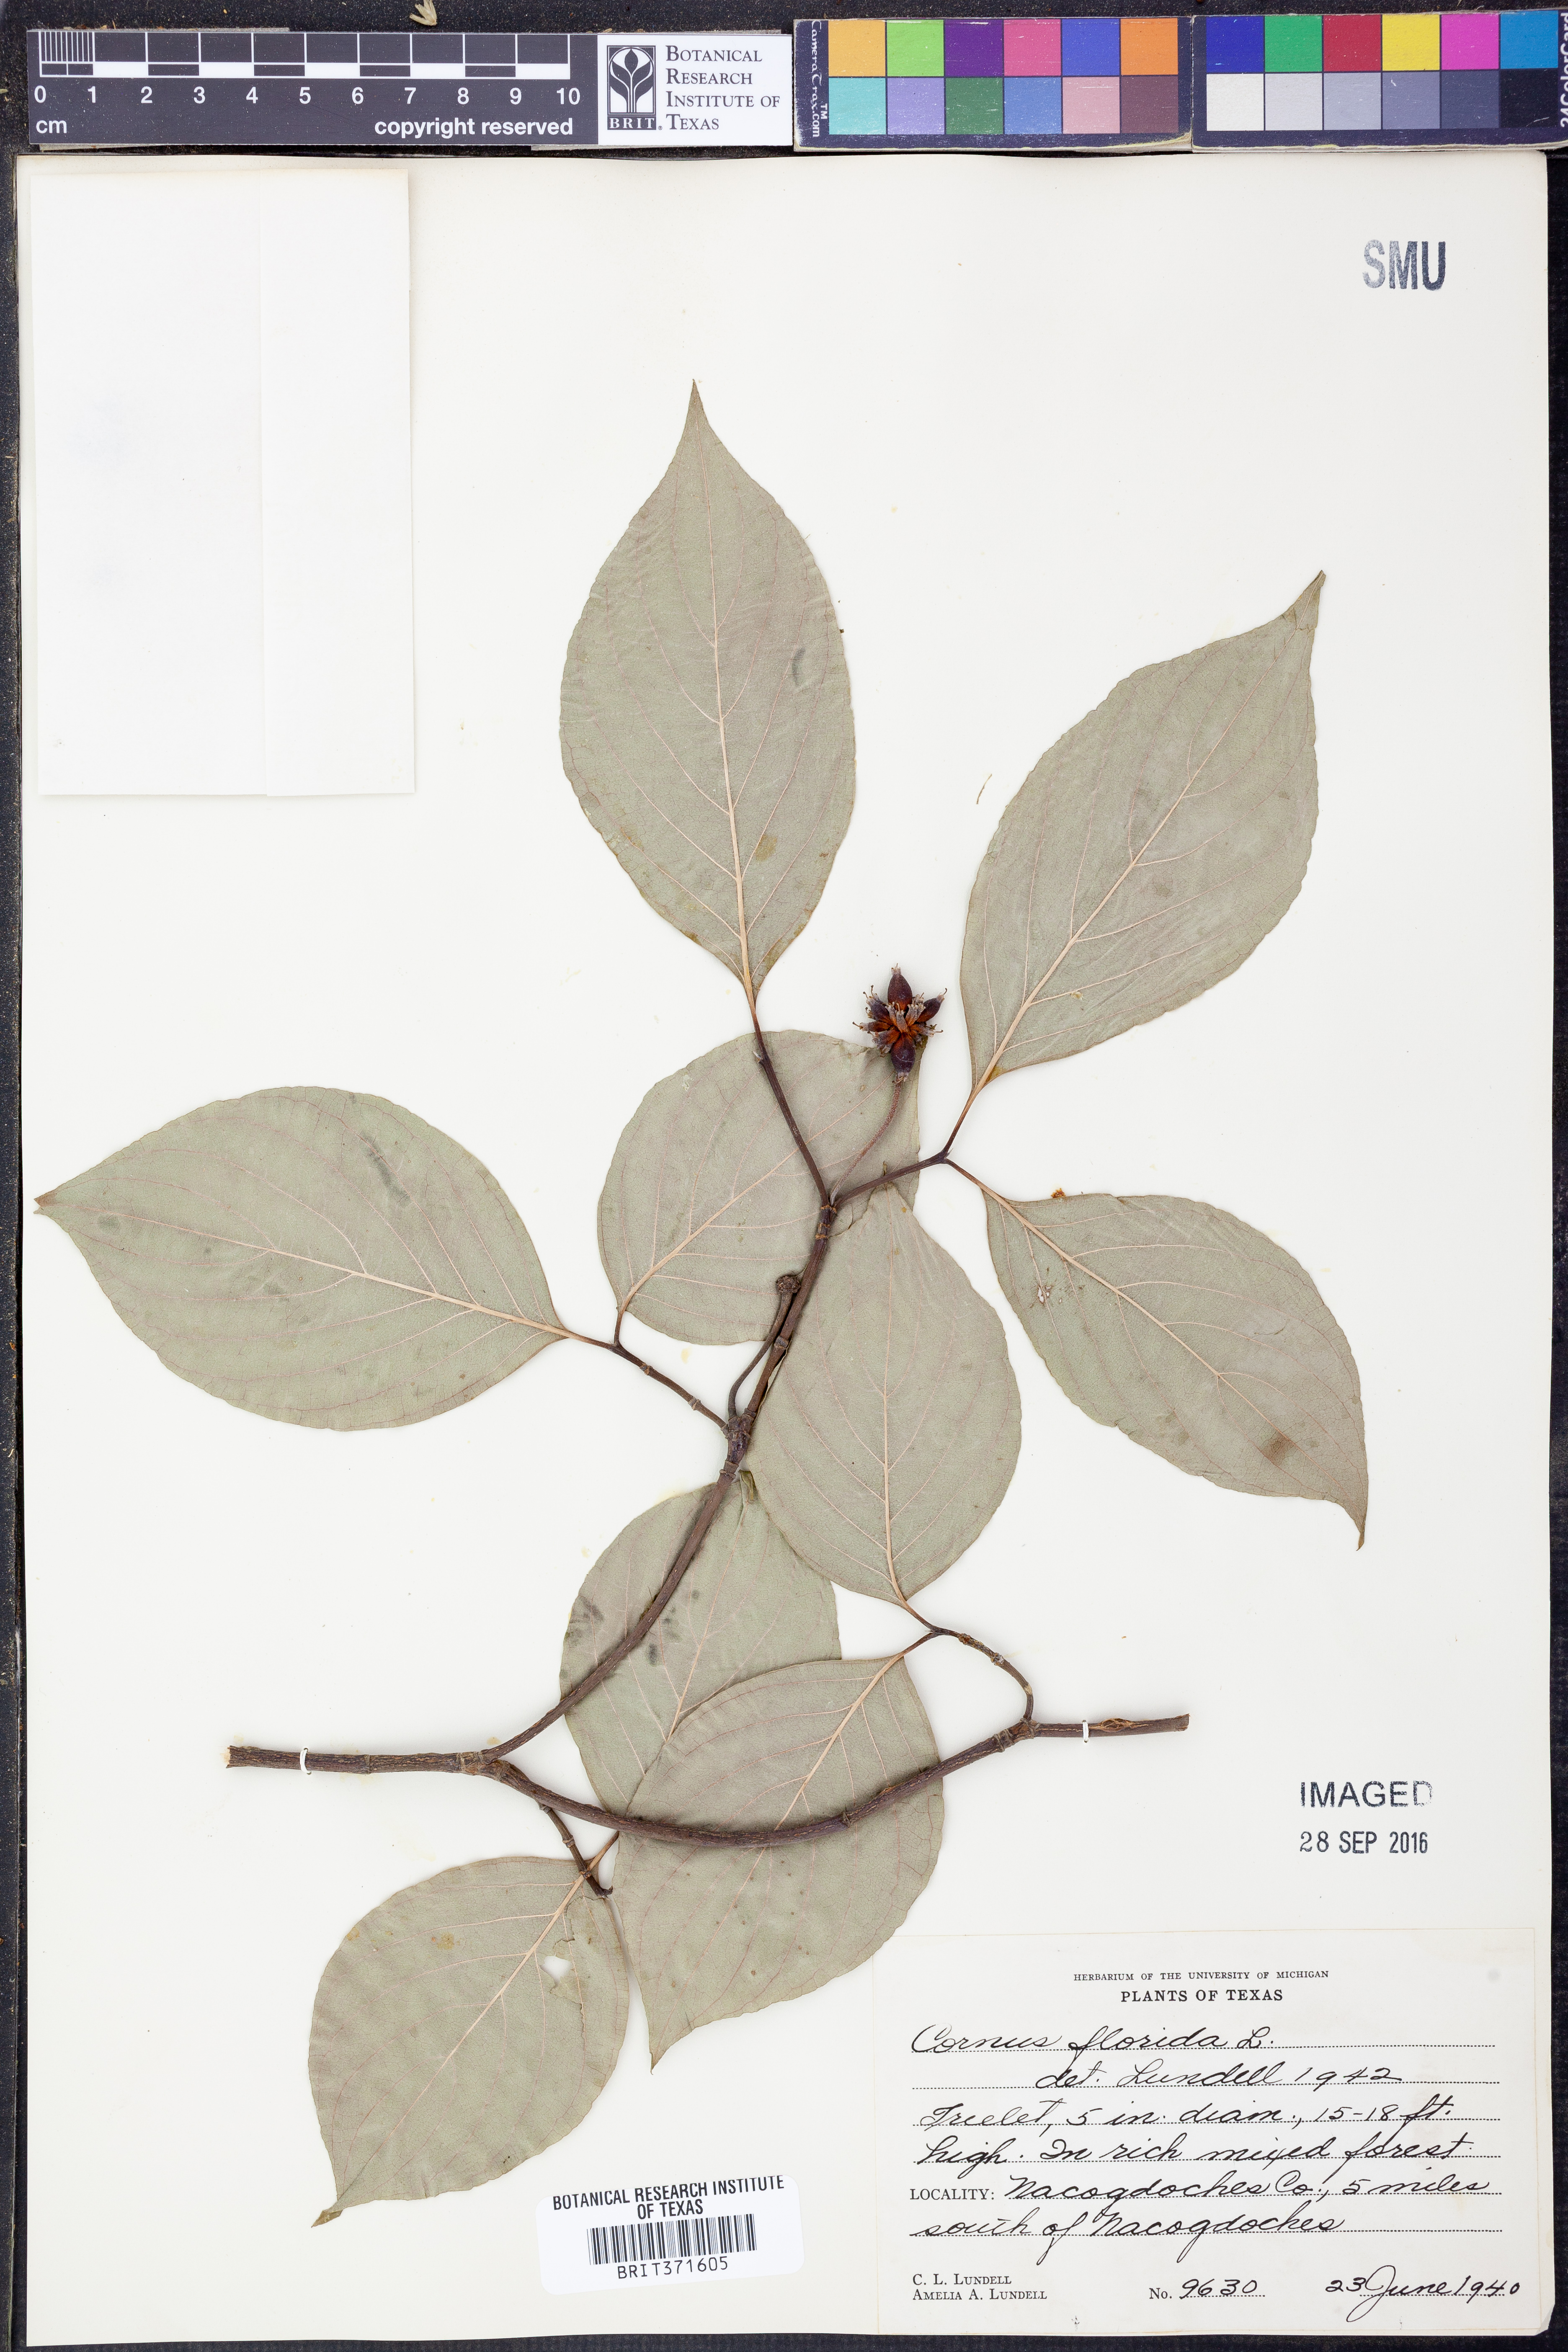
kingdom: Plantae
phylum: Tracheophyta
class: Magnoliopsida
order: Cornales
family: Cornaceae
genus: Cornus
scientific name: Cornus florida
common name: Flowering dogwood
